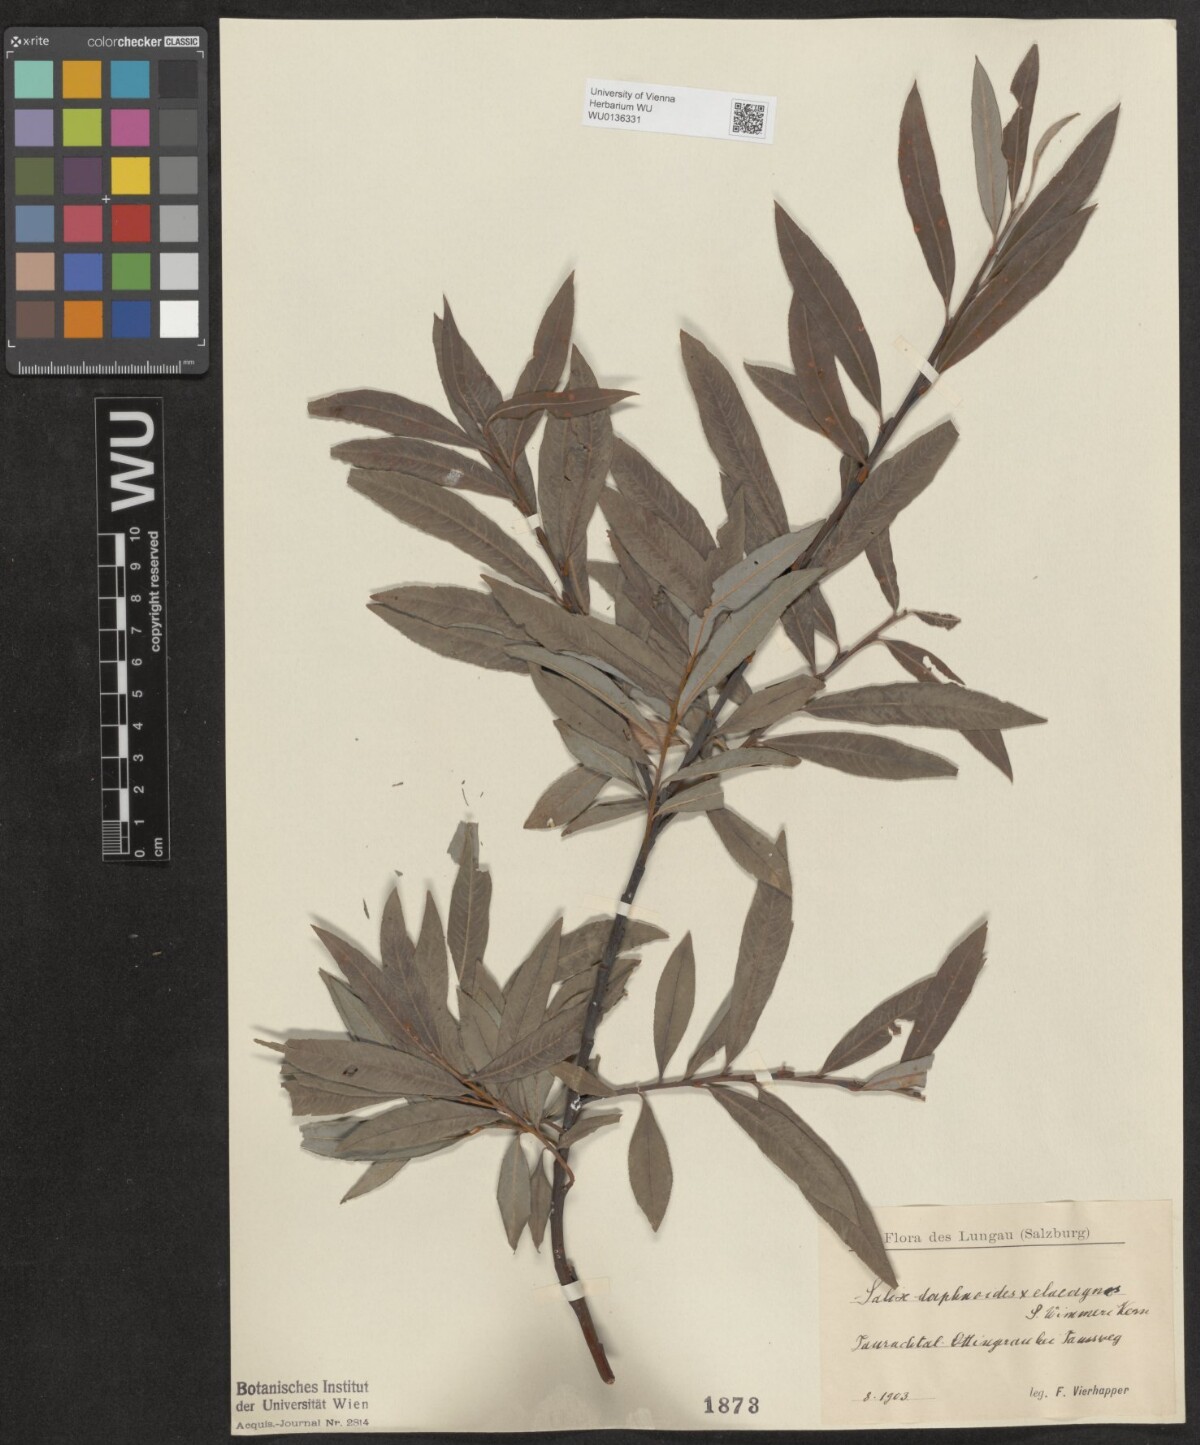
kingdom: Plantae
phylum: Tracheophyta
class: Magnoliopsida
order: Malpighiales
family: Salicaceae
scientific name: Salicaceae
